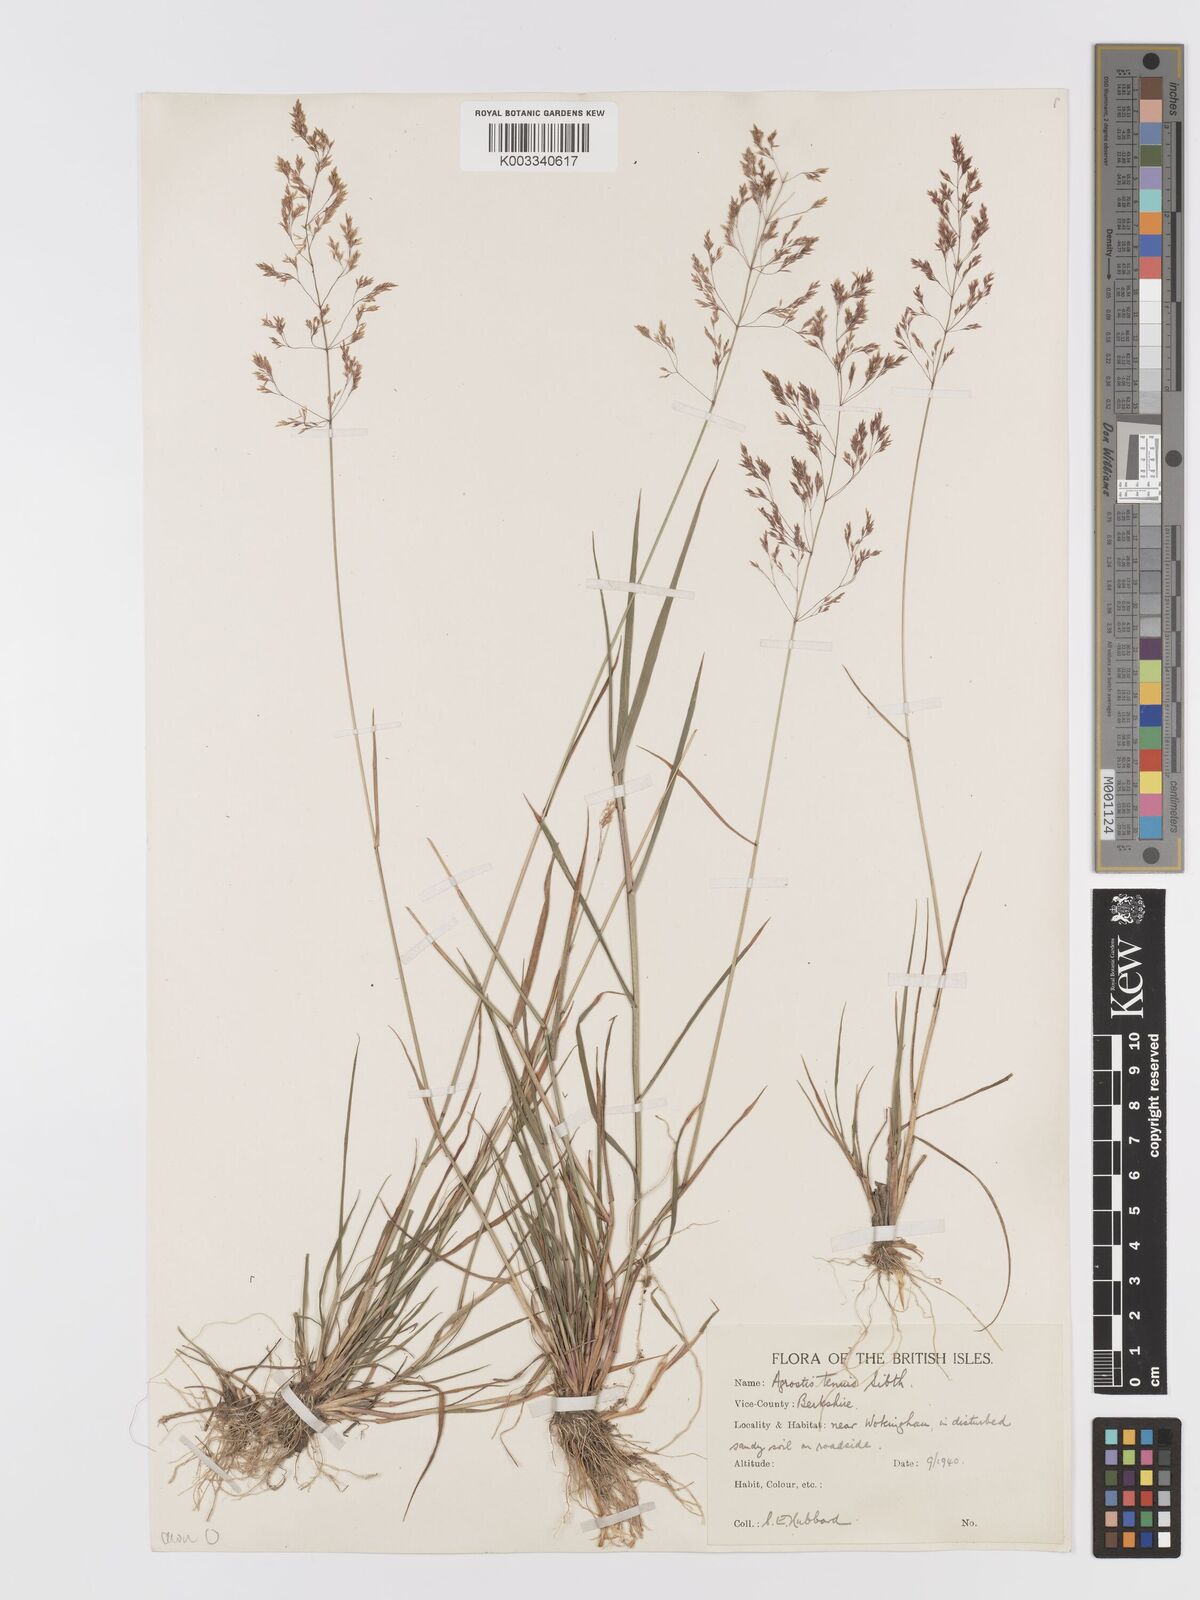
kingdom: Plantae
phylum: Tracheophyta
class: Liliopsida
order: Poales
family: Poaceae
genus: Agrostis
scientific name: Agrostis capillaris
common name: Colonial bentgrass
